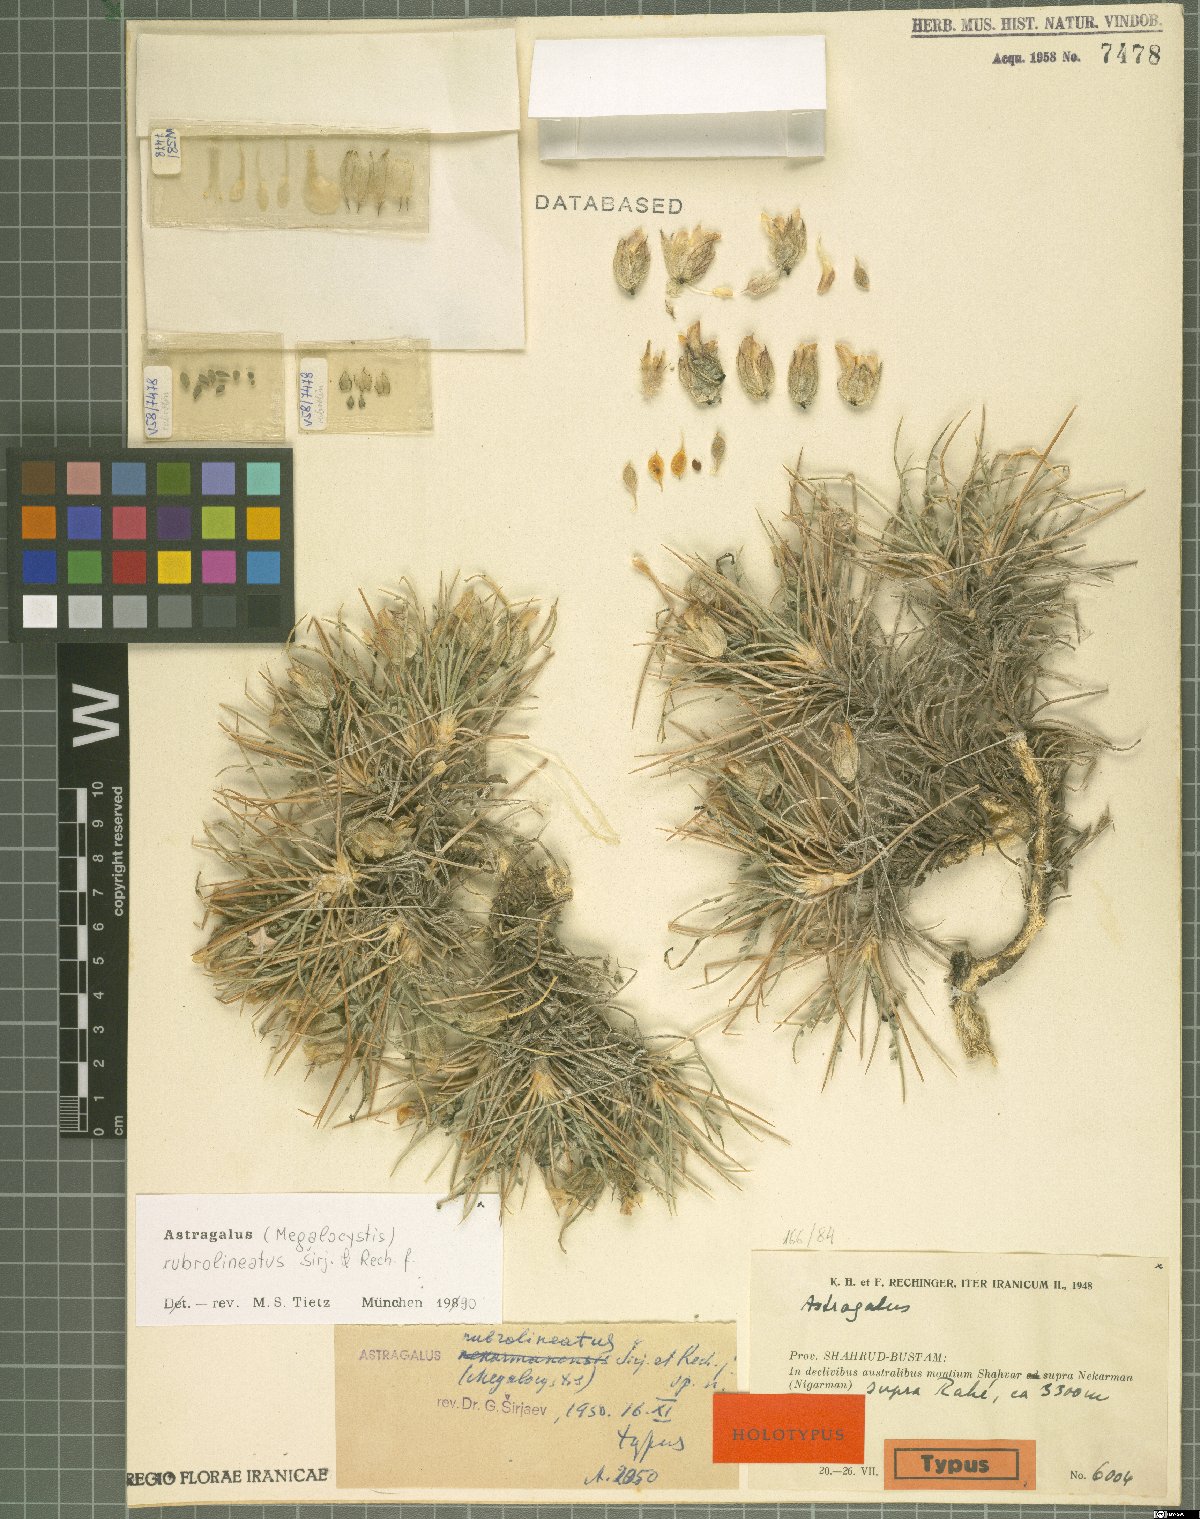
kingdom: Plantae
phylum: Tracheophyta
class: Magnoliopsida
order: Fabales
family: Fabaceae
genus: Astragalus
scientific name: Astragalus rubrolineatus
